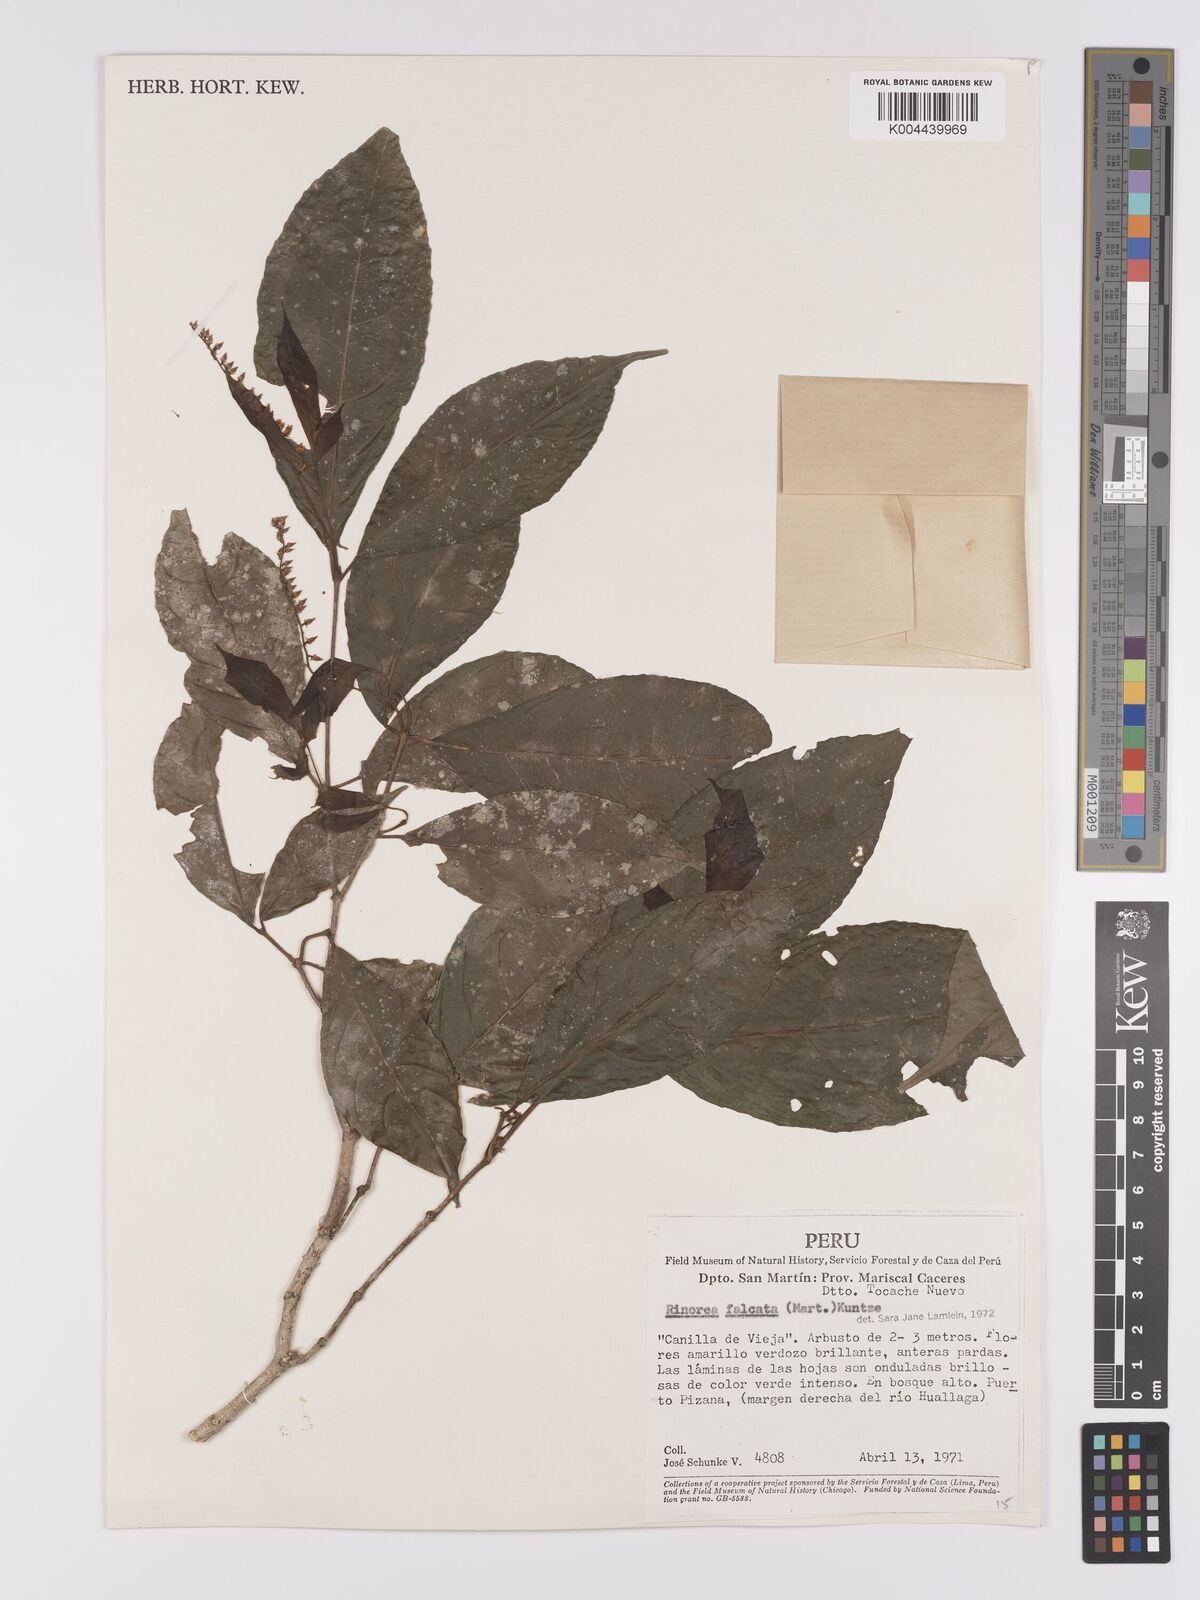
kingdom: Plantae
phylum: Tracheophyta
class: Magnoliopsida
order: Malpighiales
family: Violaceae
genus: Rinorea
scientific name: Rinorea falcata
